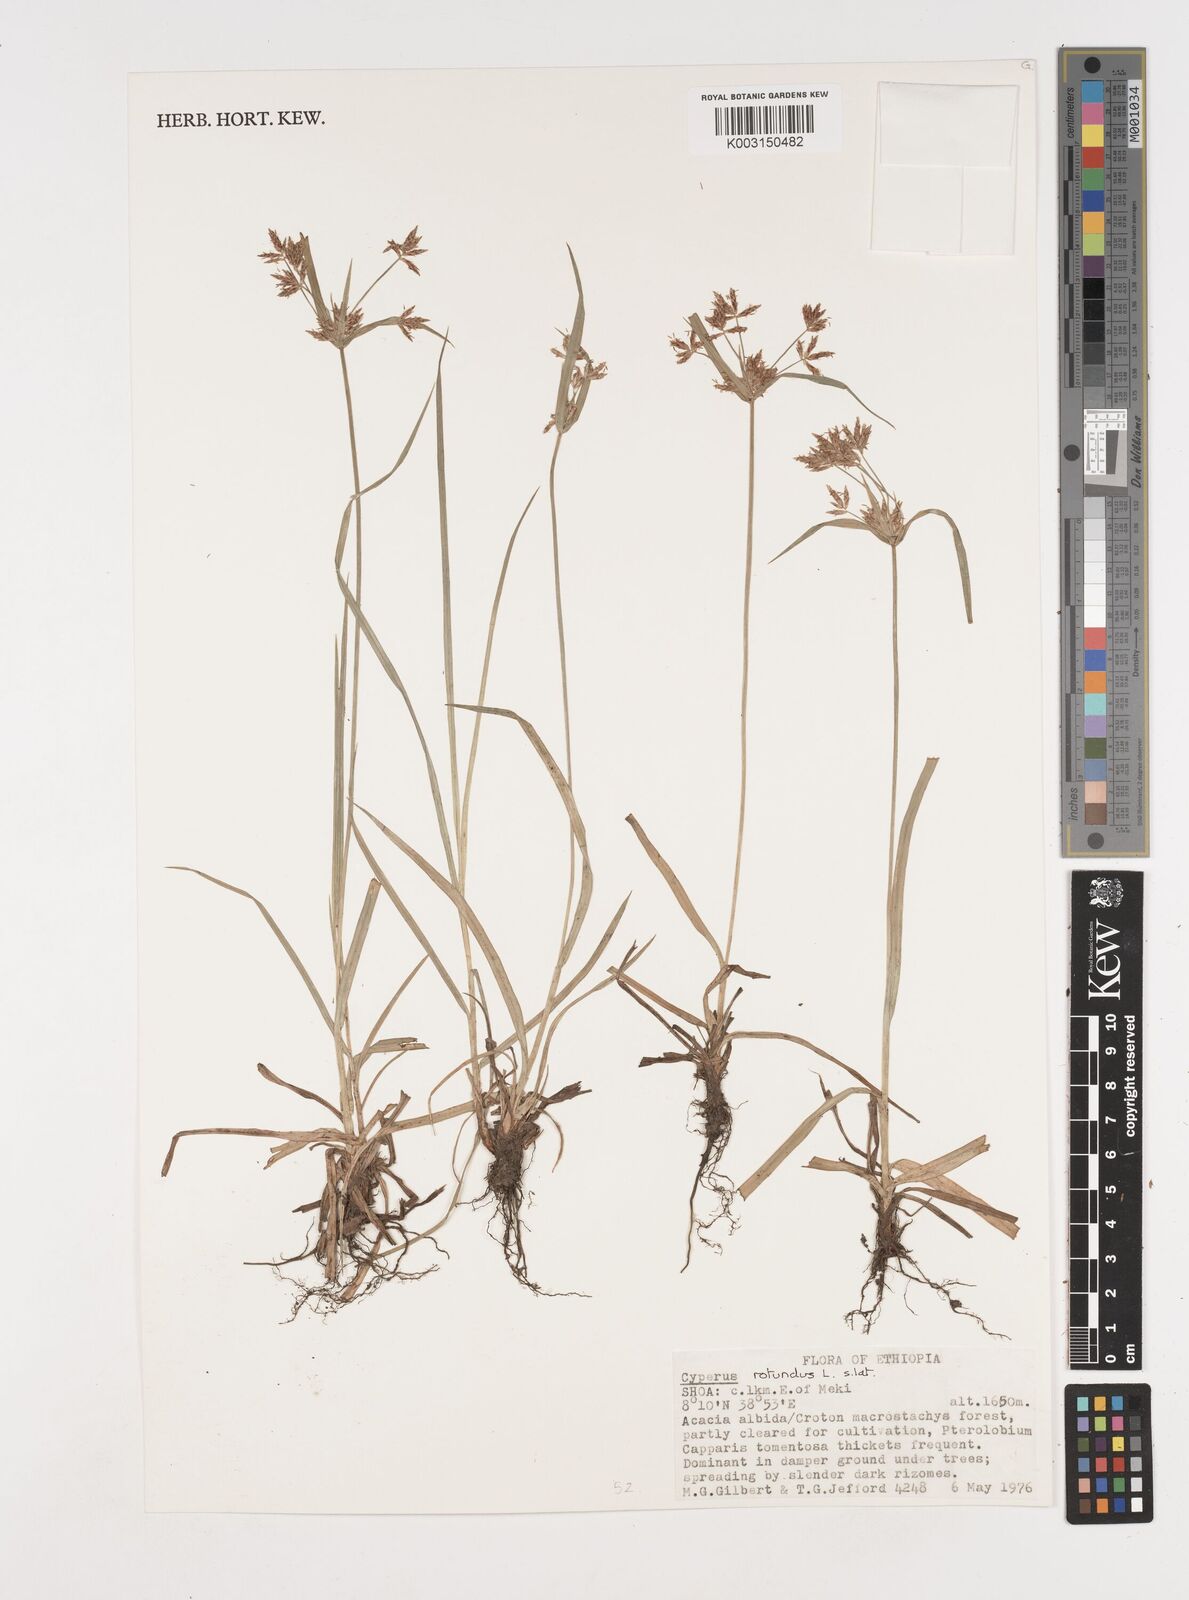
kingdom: Plantae
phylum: Tracheophyta
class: Liliopsida
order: Poales
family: Cyperaceae
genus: Cyperus
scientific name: Cyperus rotundus
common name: Nutgrass
